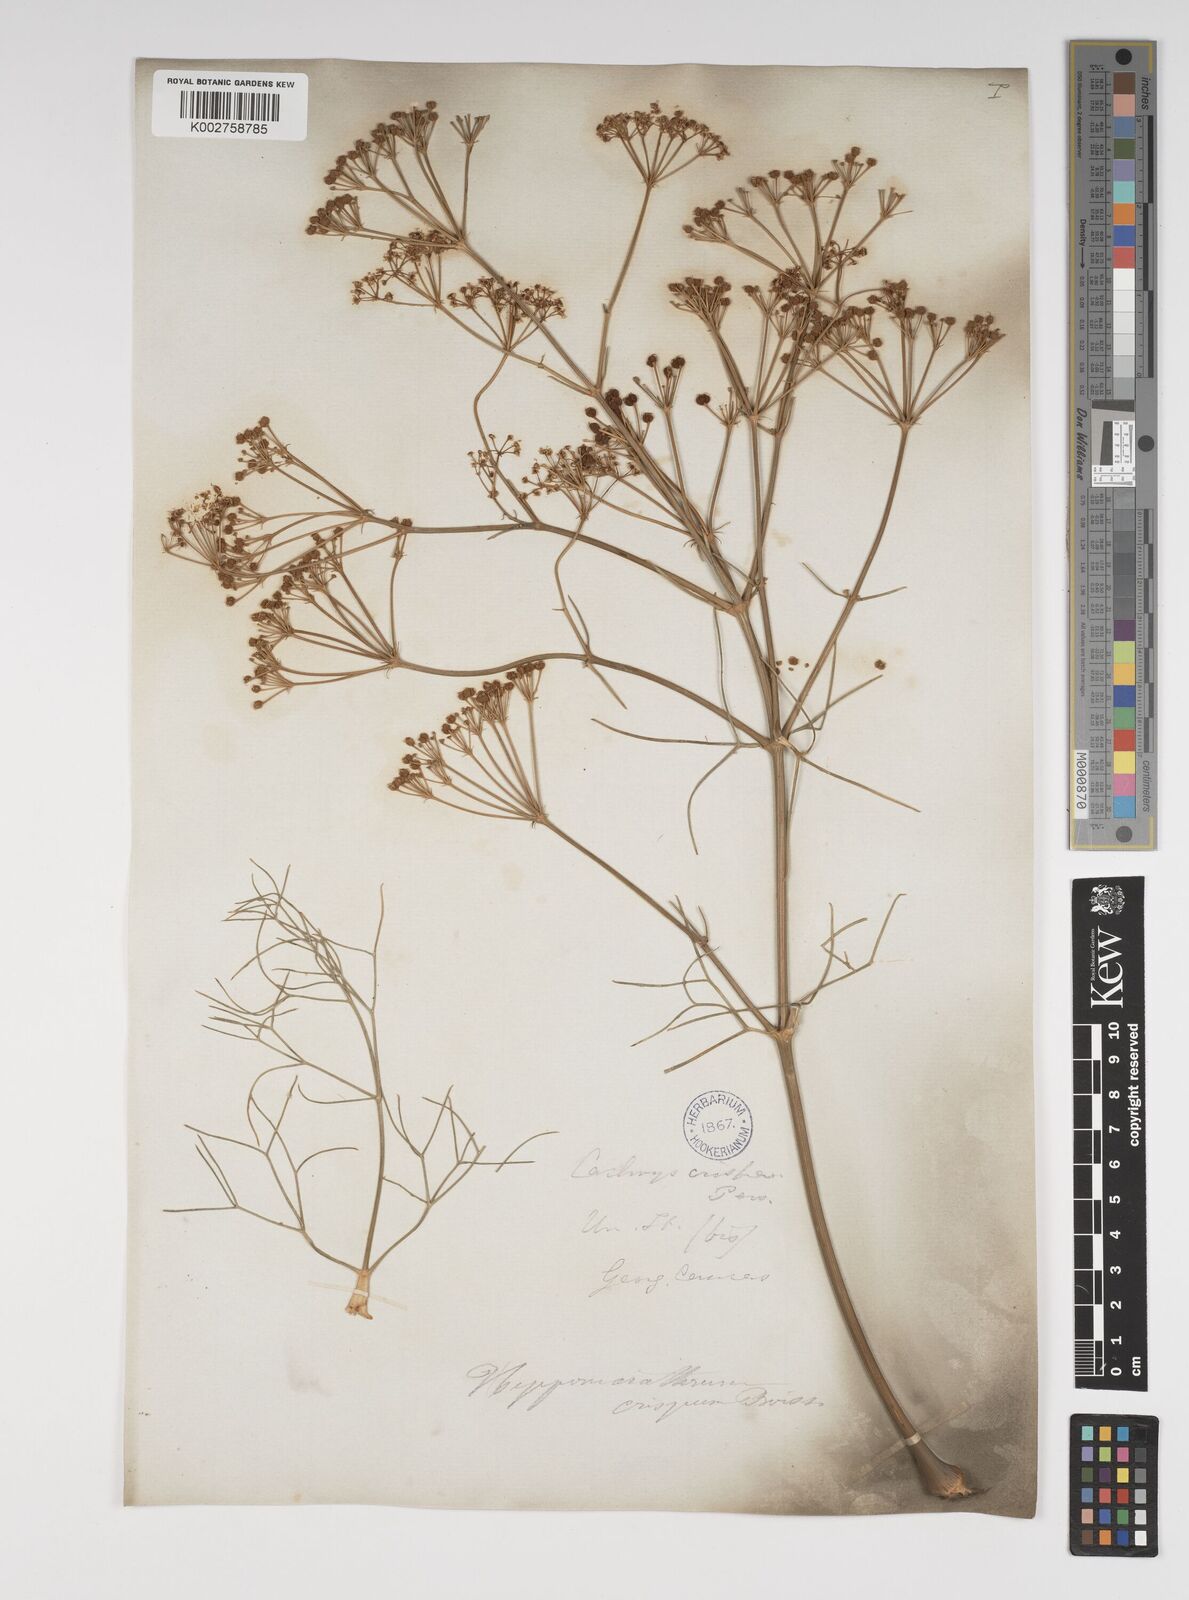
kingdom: Plantae
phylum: Tracheophyta
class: Magnoliopsida
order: Apiales
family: Apiaceae
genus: Bilacunaria
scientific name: Bilacunaria microcarpa
